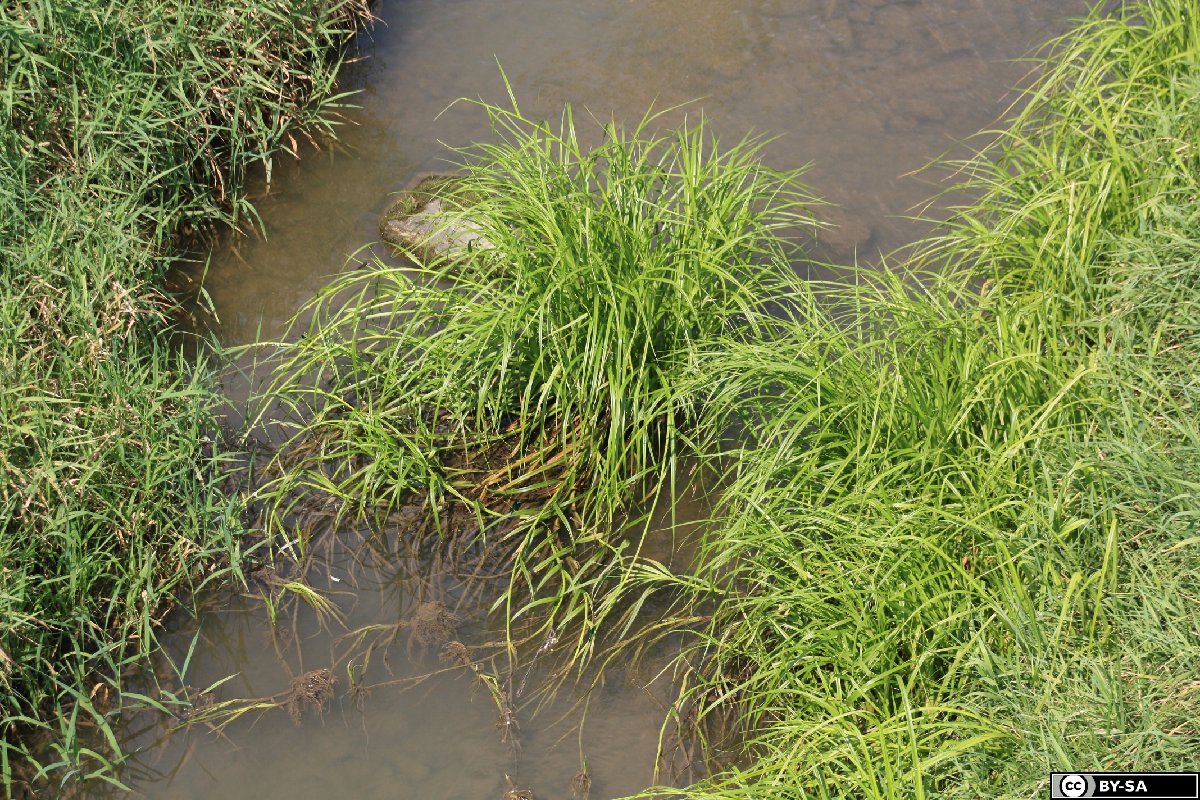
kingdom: Plantae
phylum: Tracheophyta
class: Liliopsida
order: Poales
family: Cyperaceae
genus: Scirpus
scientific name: Scirpus radicans
